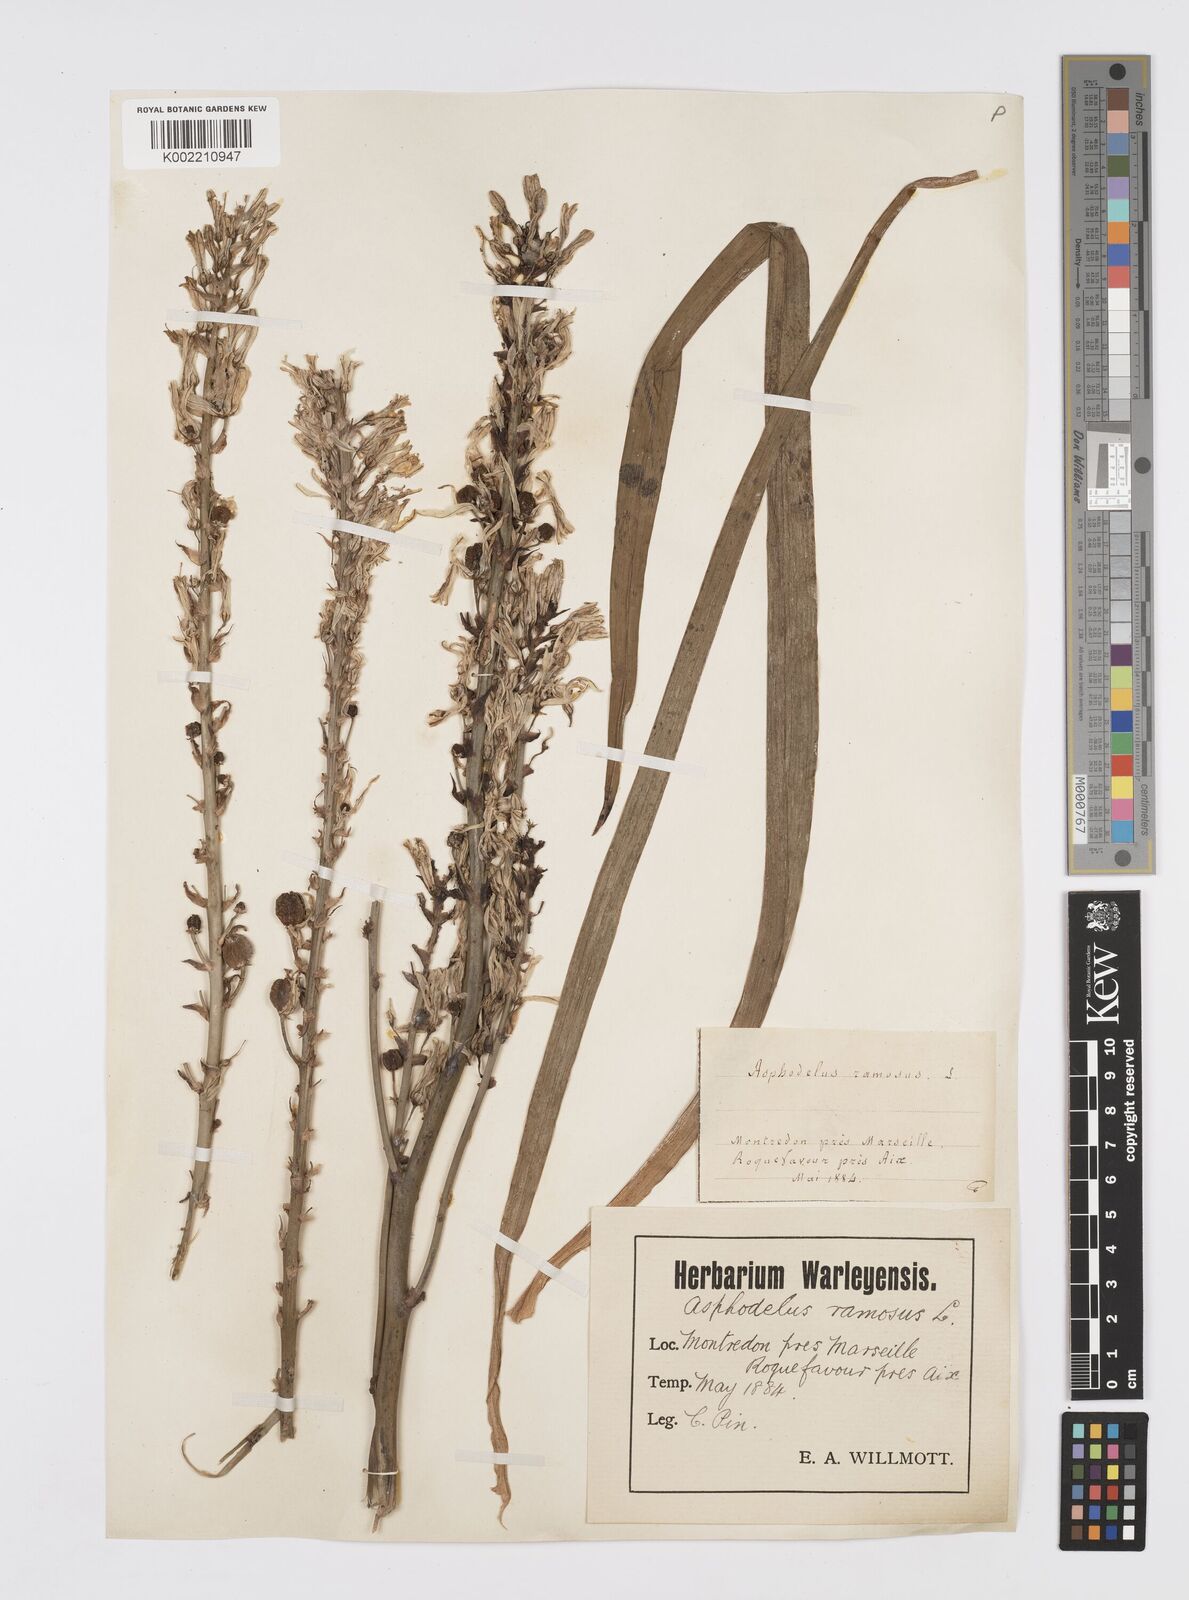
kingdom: Plantae
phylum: Tracheophyta
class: Liliopsida
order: Asparagales
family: Asphodelaceae
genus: Asphodelus
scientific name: Asphodelus aestivus
